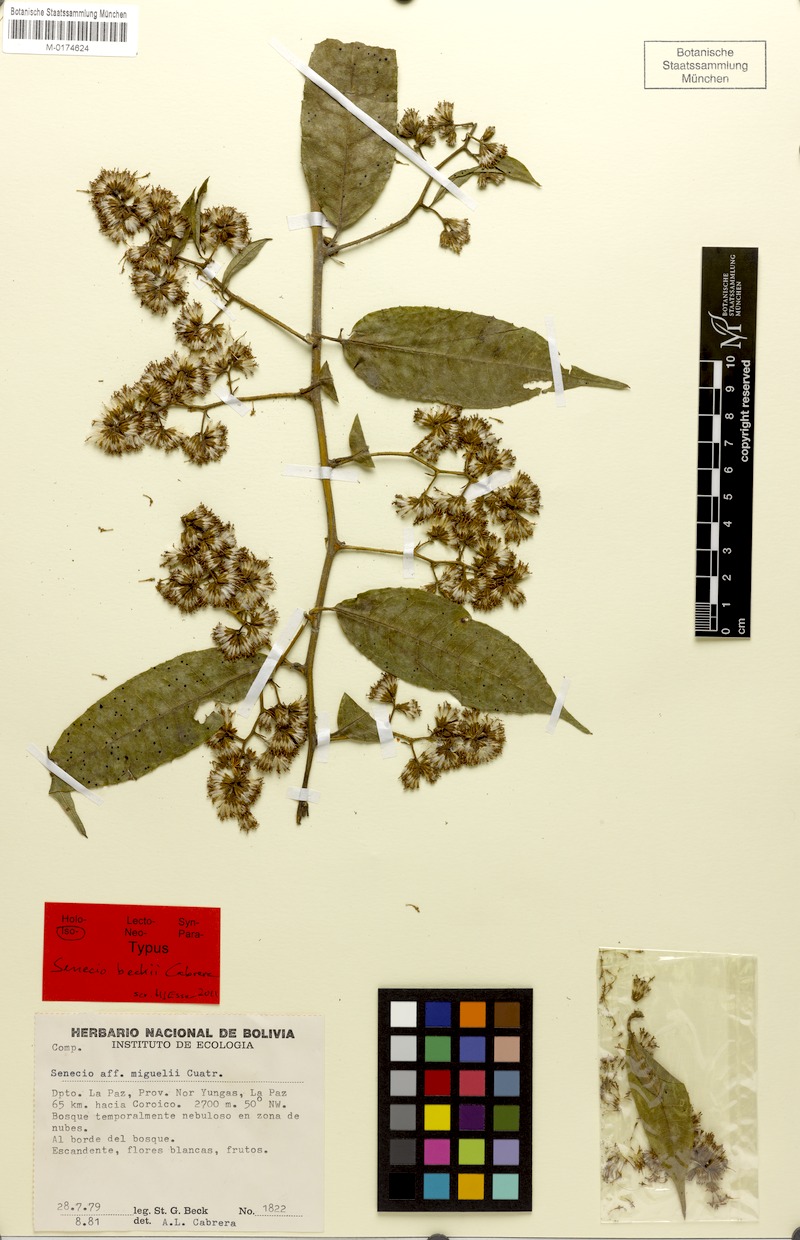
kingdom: Plantae
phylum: Tracheophyta
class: Magnoliopsida
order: Asterales
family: Asteraceae
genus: Pentacalia
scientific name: Pentacalia beckii
